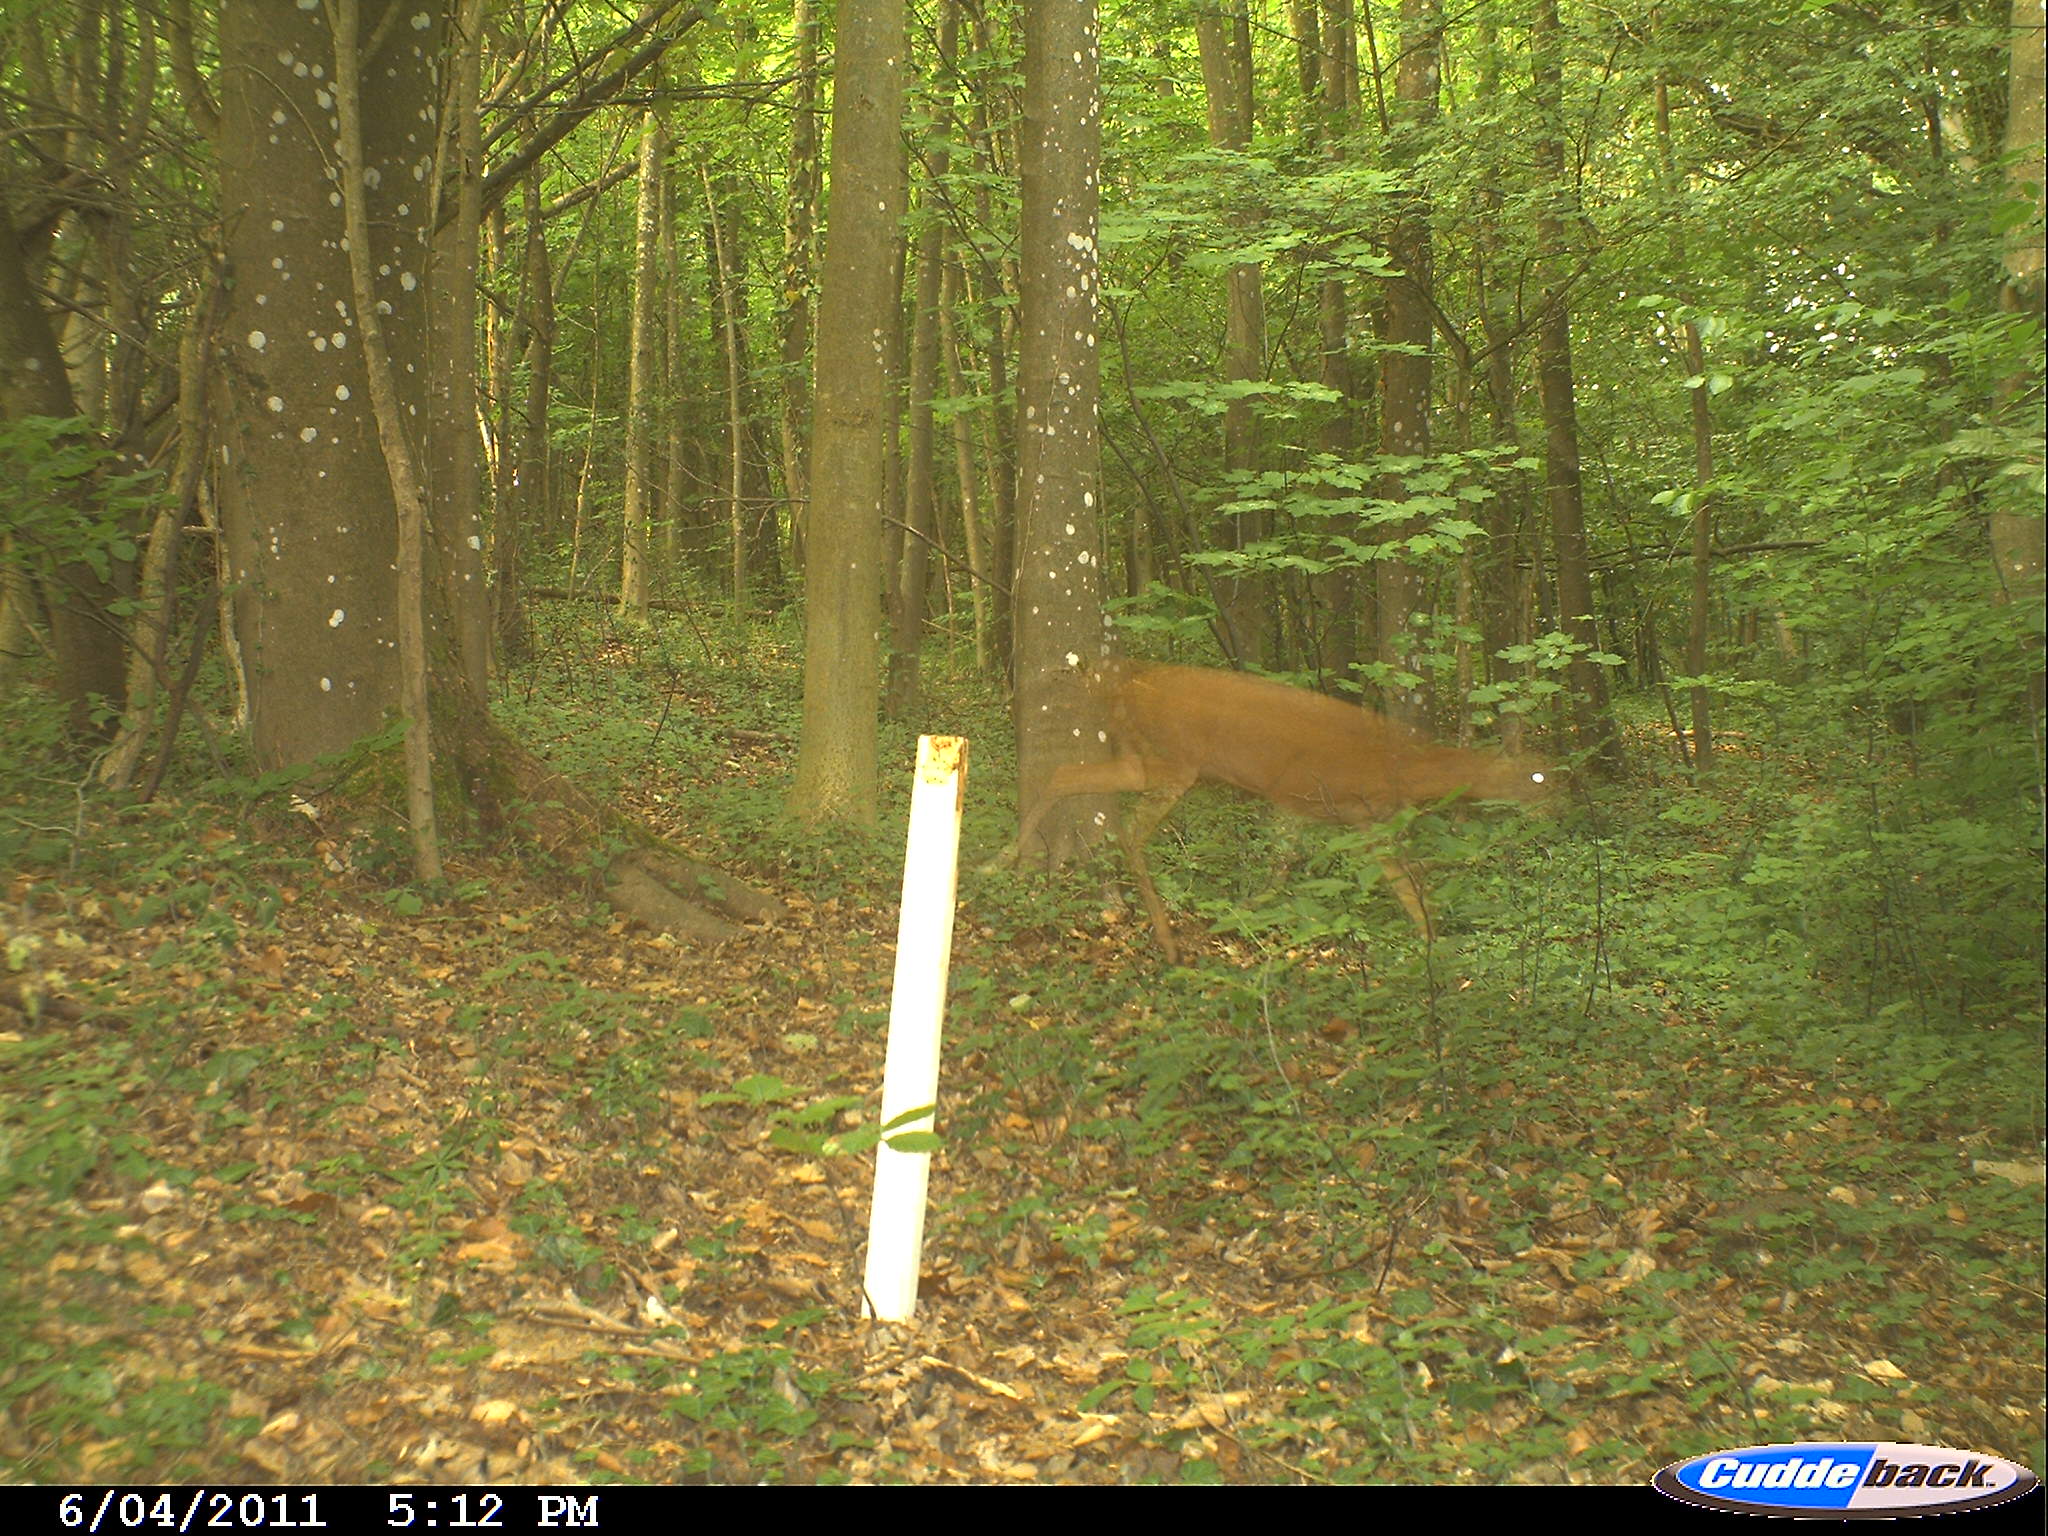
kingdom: Animalia
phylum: Chordata
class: Mammalia
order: Artiodactyla
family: Cervidae
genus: Capreolus
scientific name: Capreolus capreolus
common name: Western roe deer
